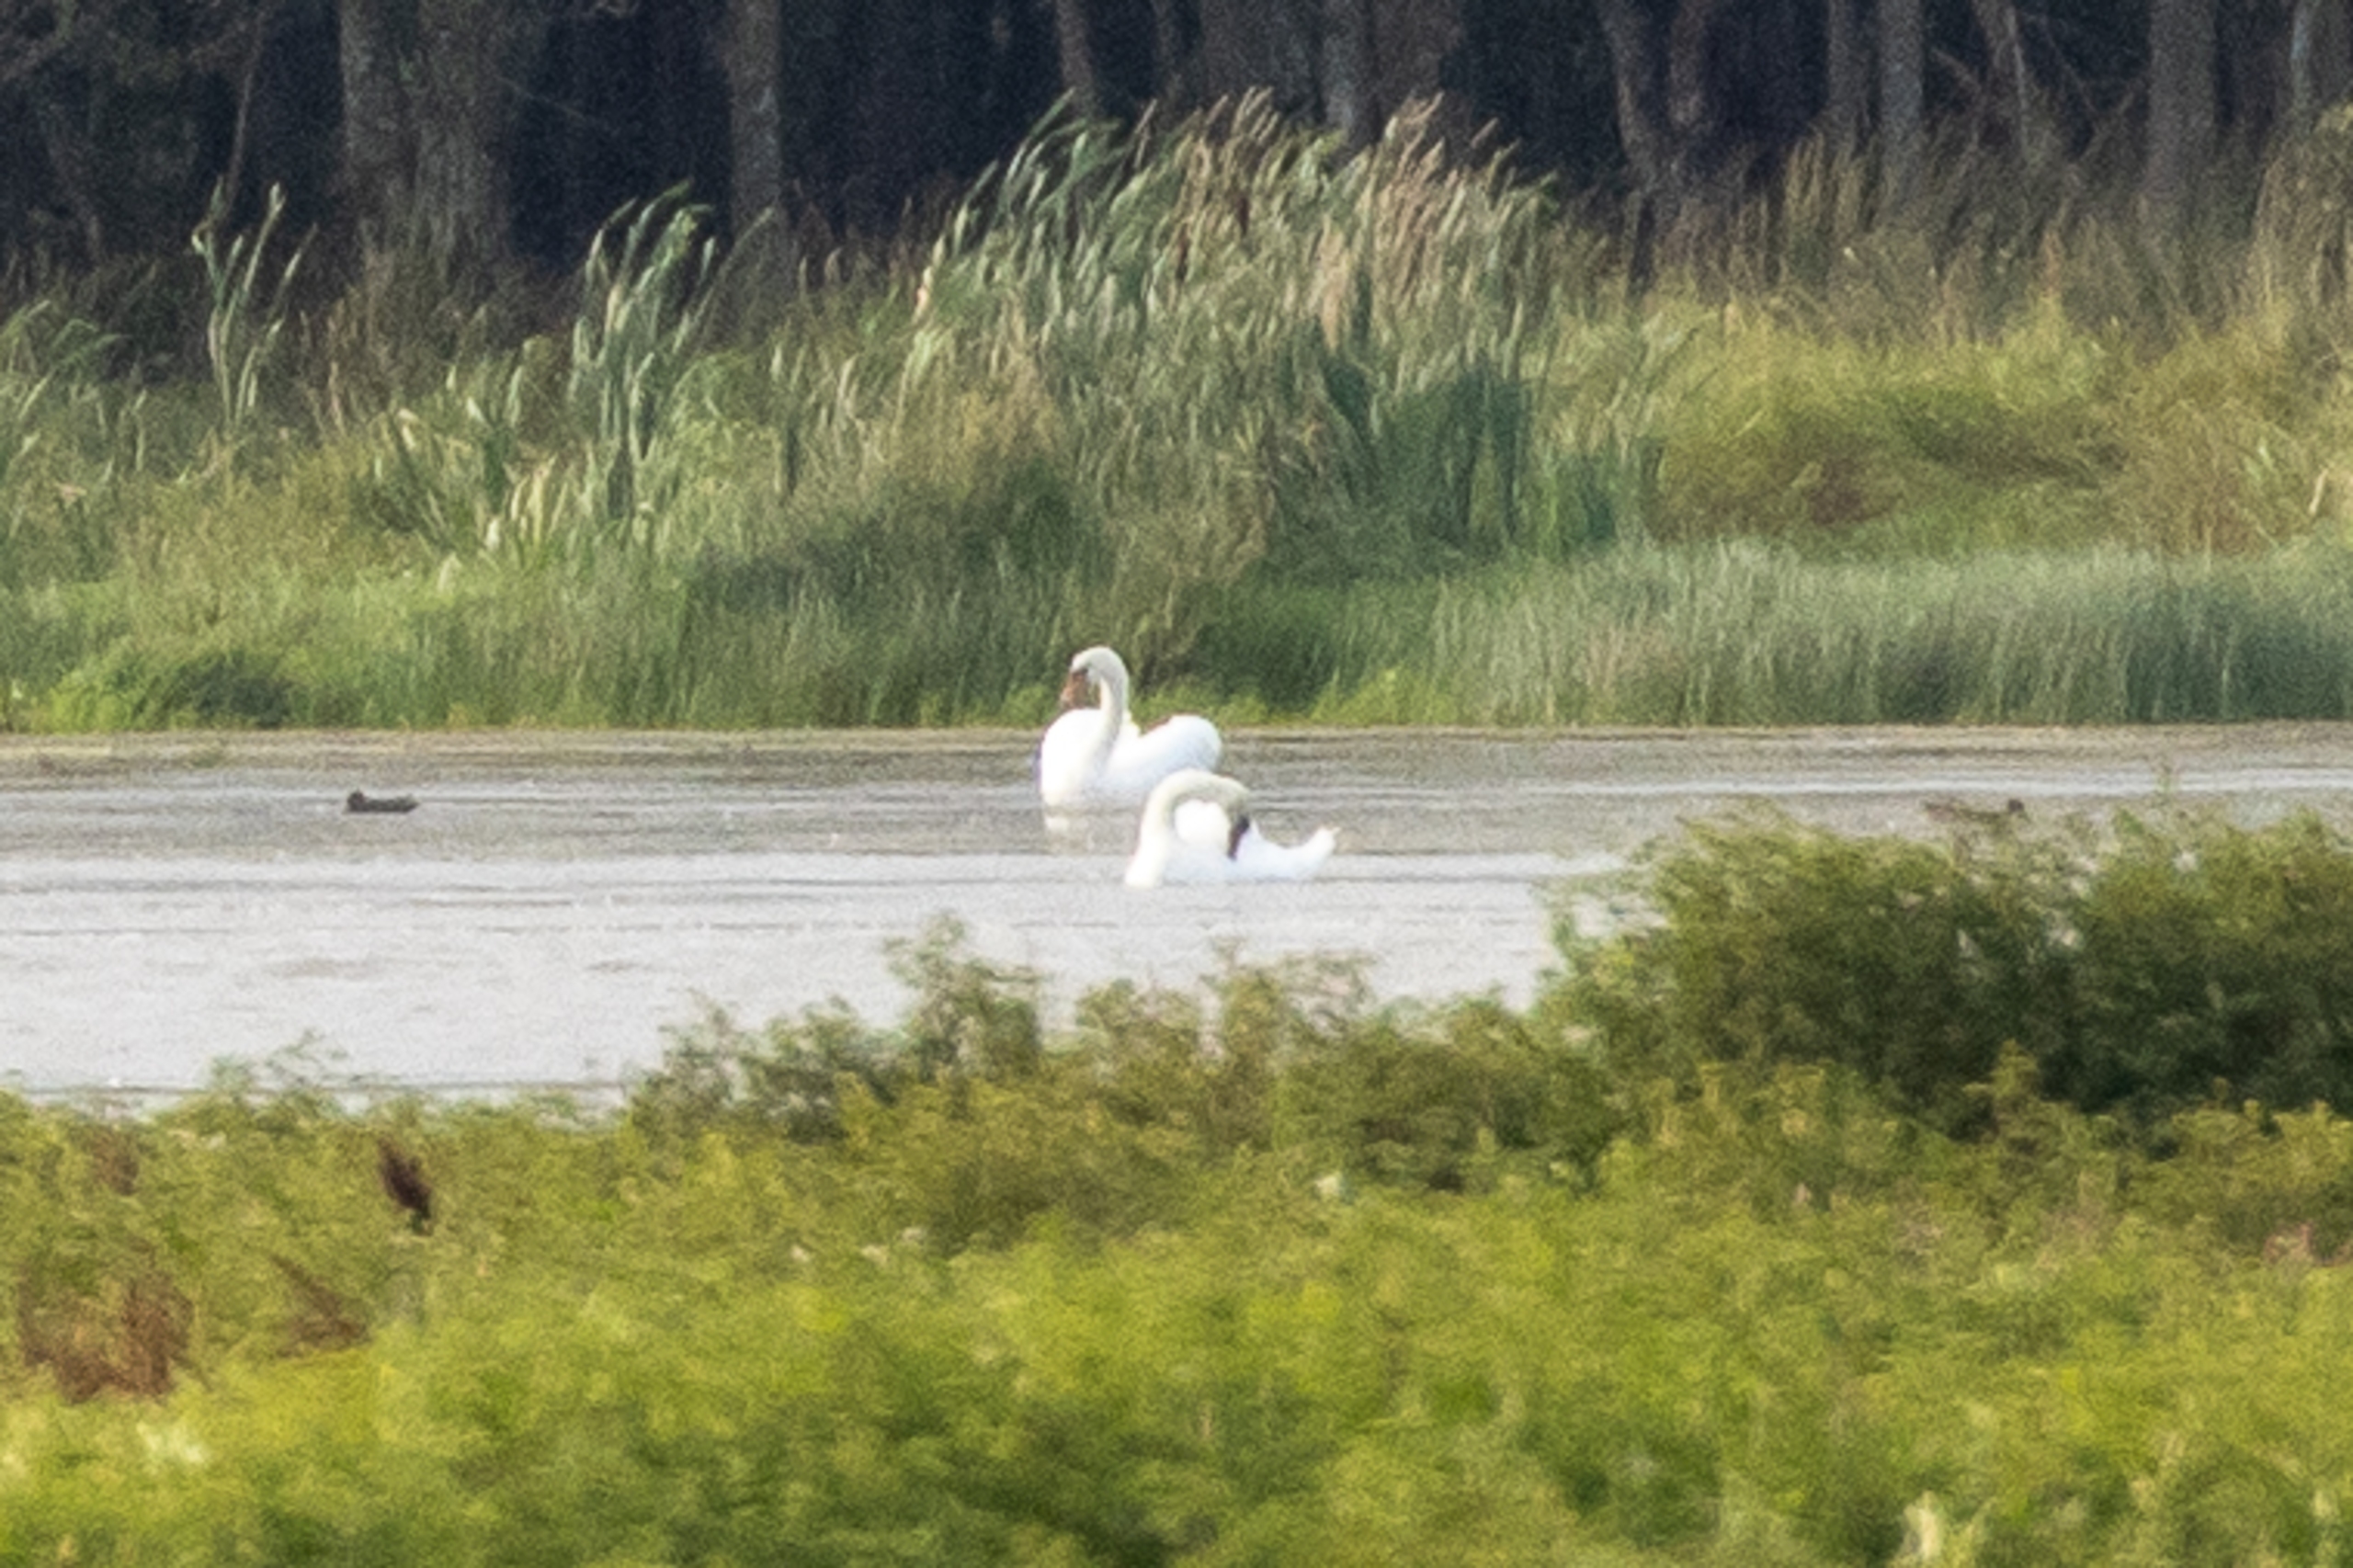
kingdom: Animalia
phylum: Chordata
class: Aves
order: Anseriformes
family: Anatidae
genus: Cygnus
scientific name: Cygnus olor
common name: Knopsvane
